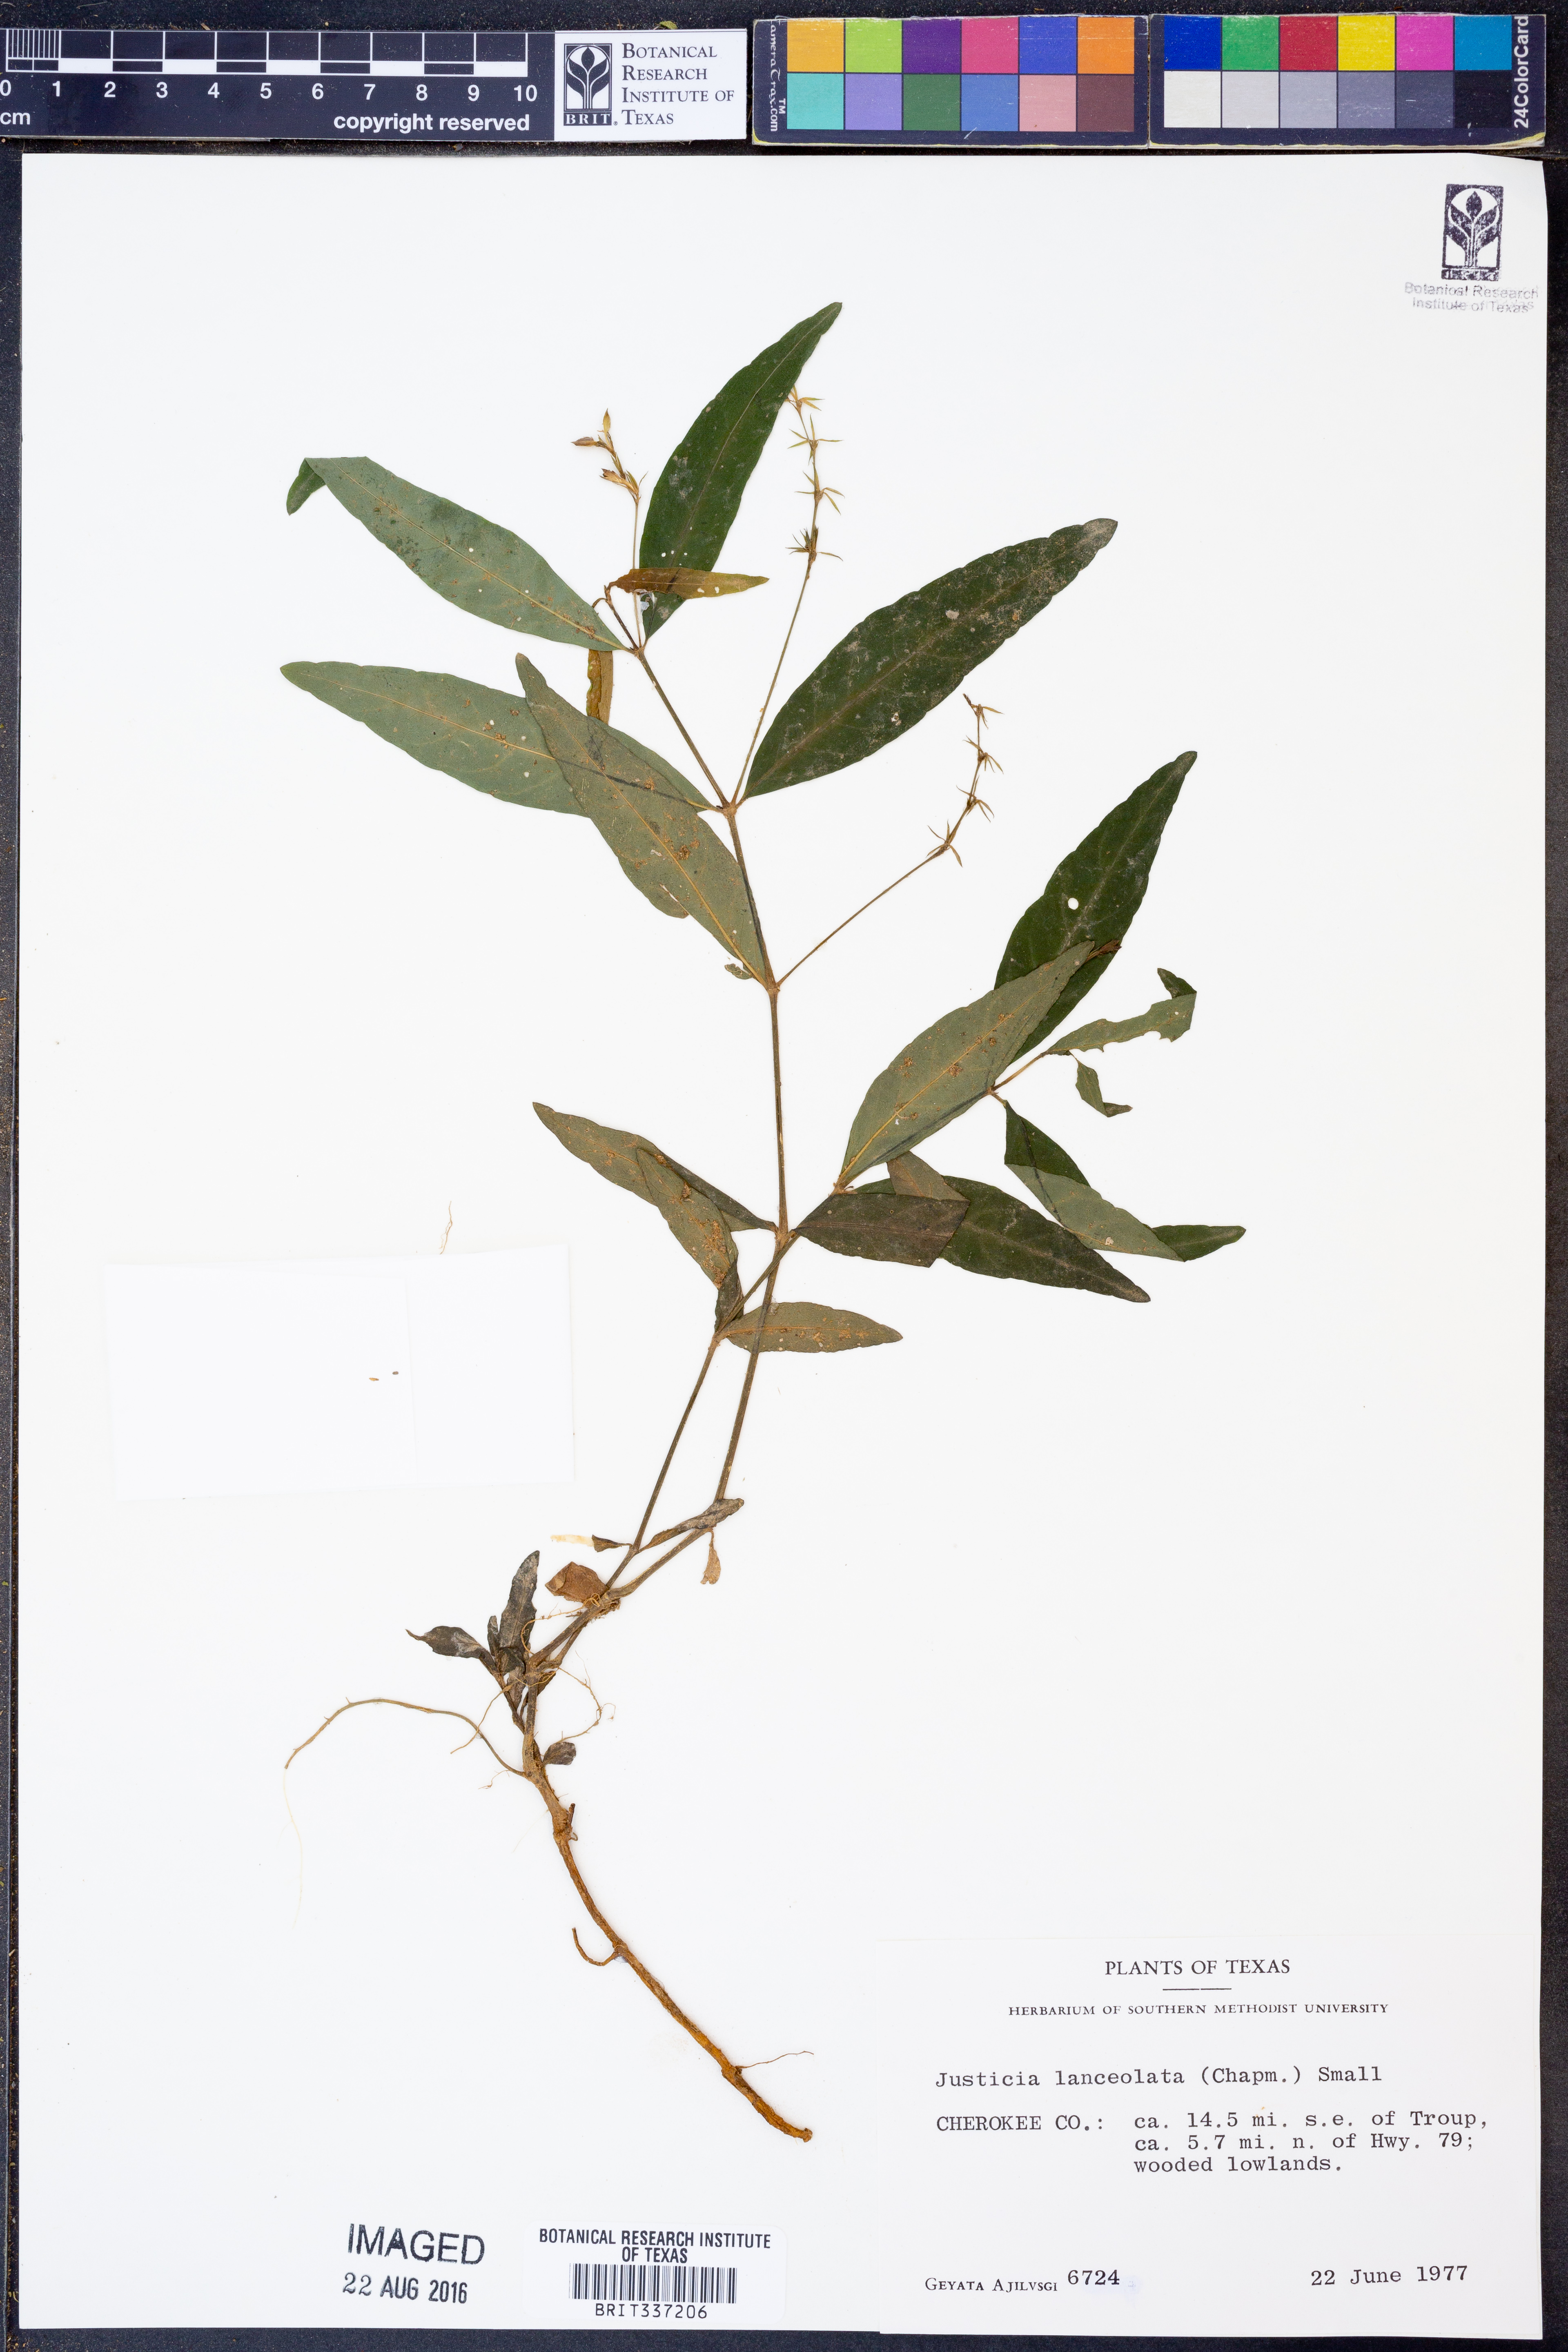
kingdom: Plantae
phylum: Tracheophyta
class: Magnoliopsida
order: Lamiales
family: Acanthaceae
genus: Justicia
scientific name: Justicia lanceolata
